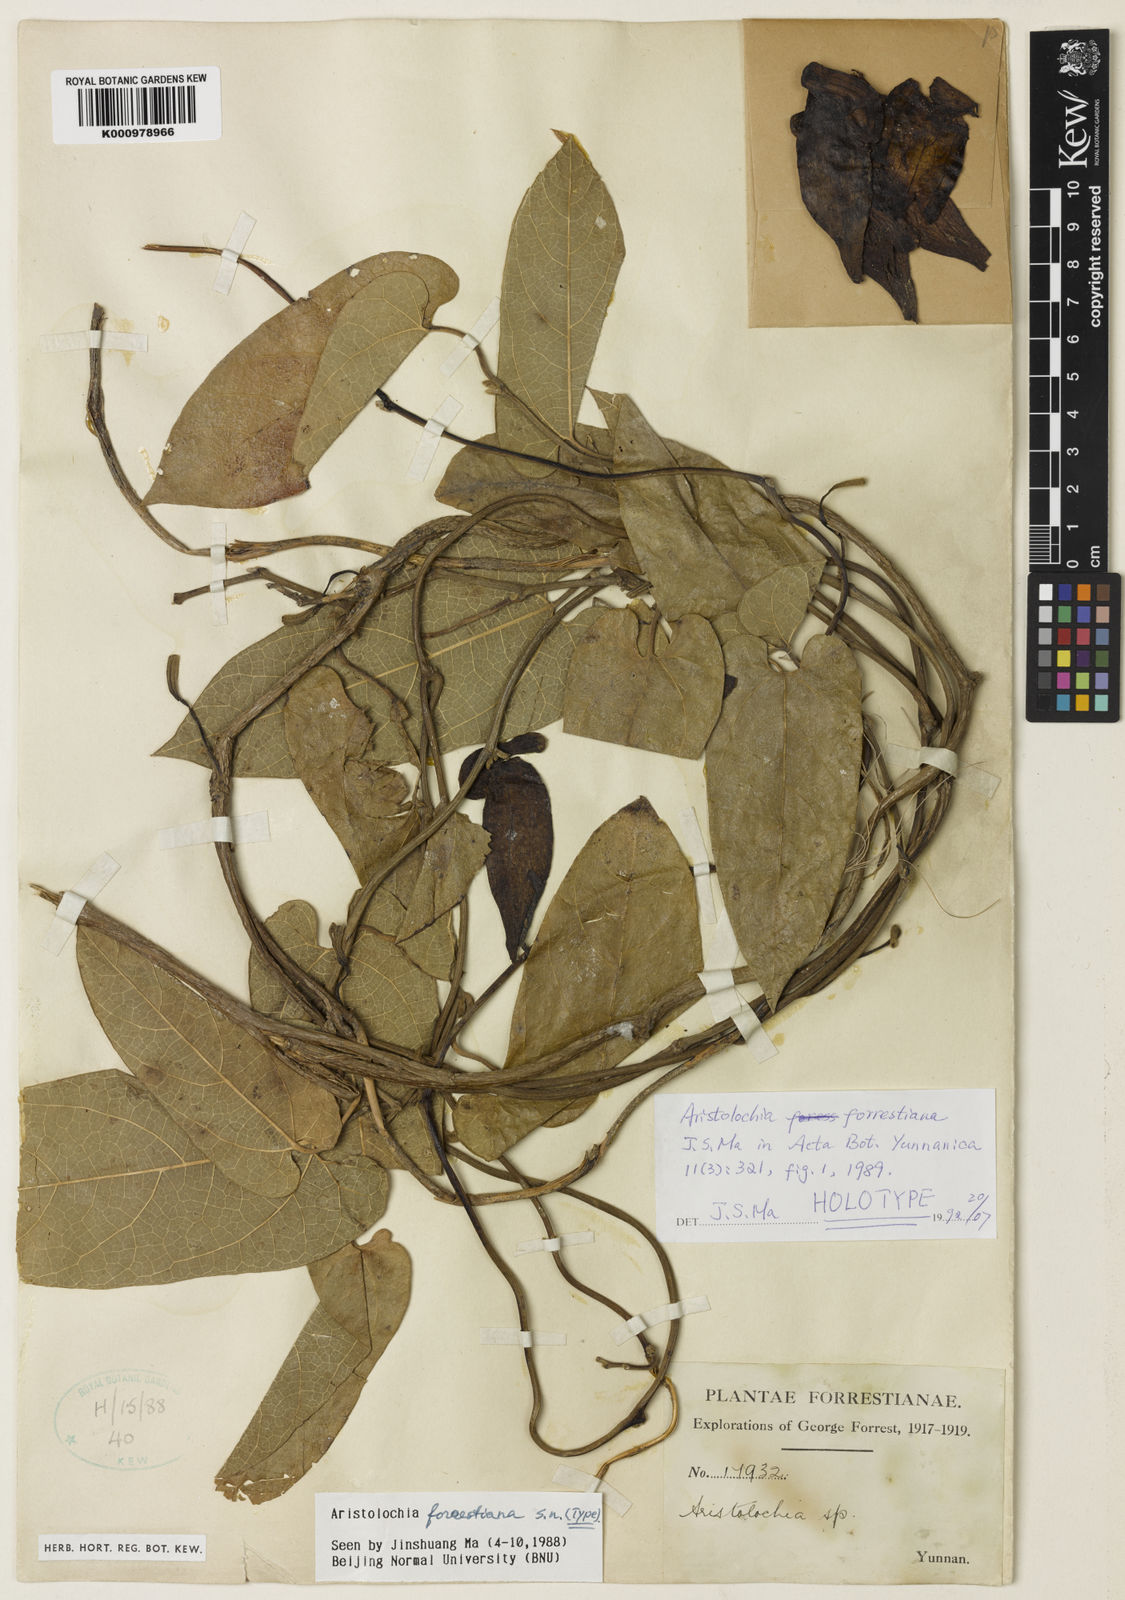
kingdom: Plantae
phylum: Tracheophyta
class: Magnoliopsida
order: Piperales
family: Aristolochiaceae
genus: Isotrema
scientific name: Isotrema forrestianum
